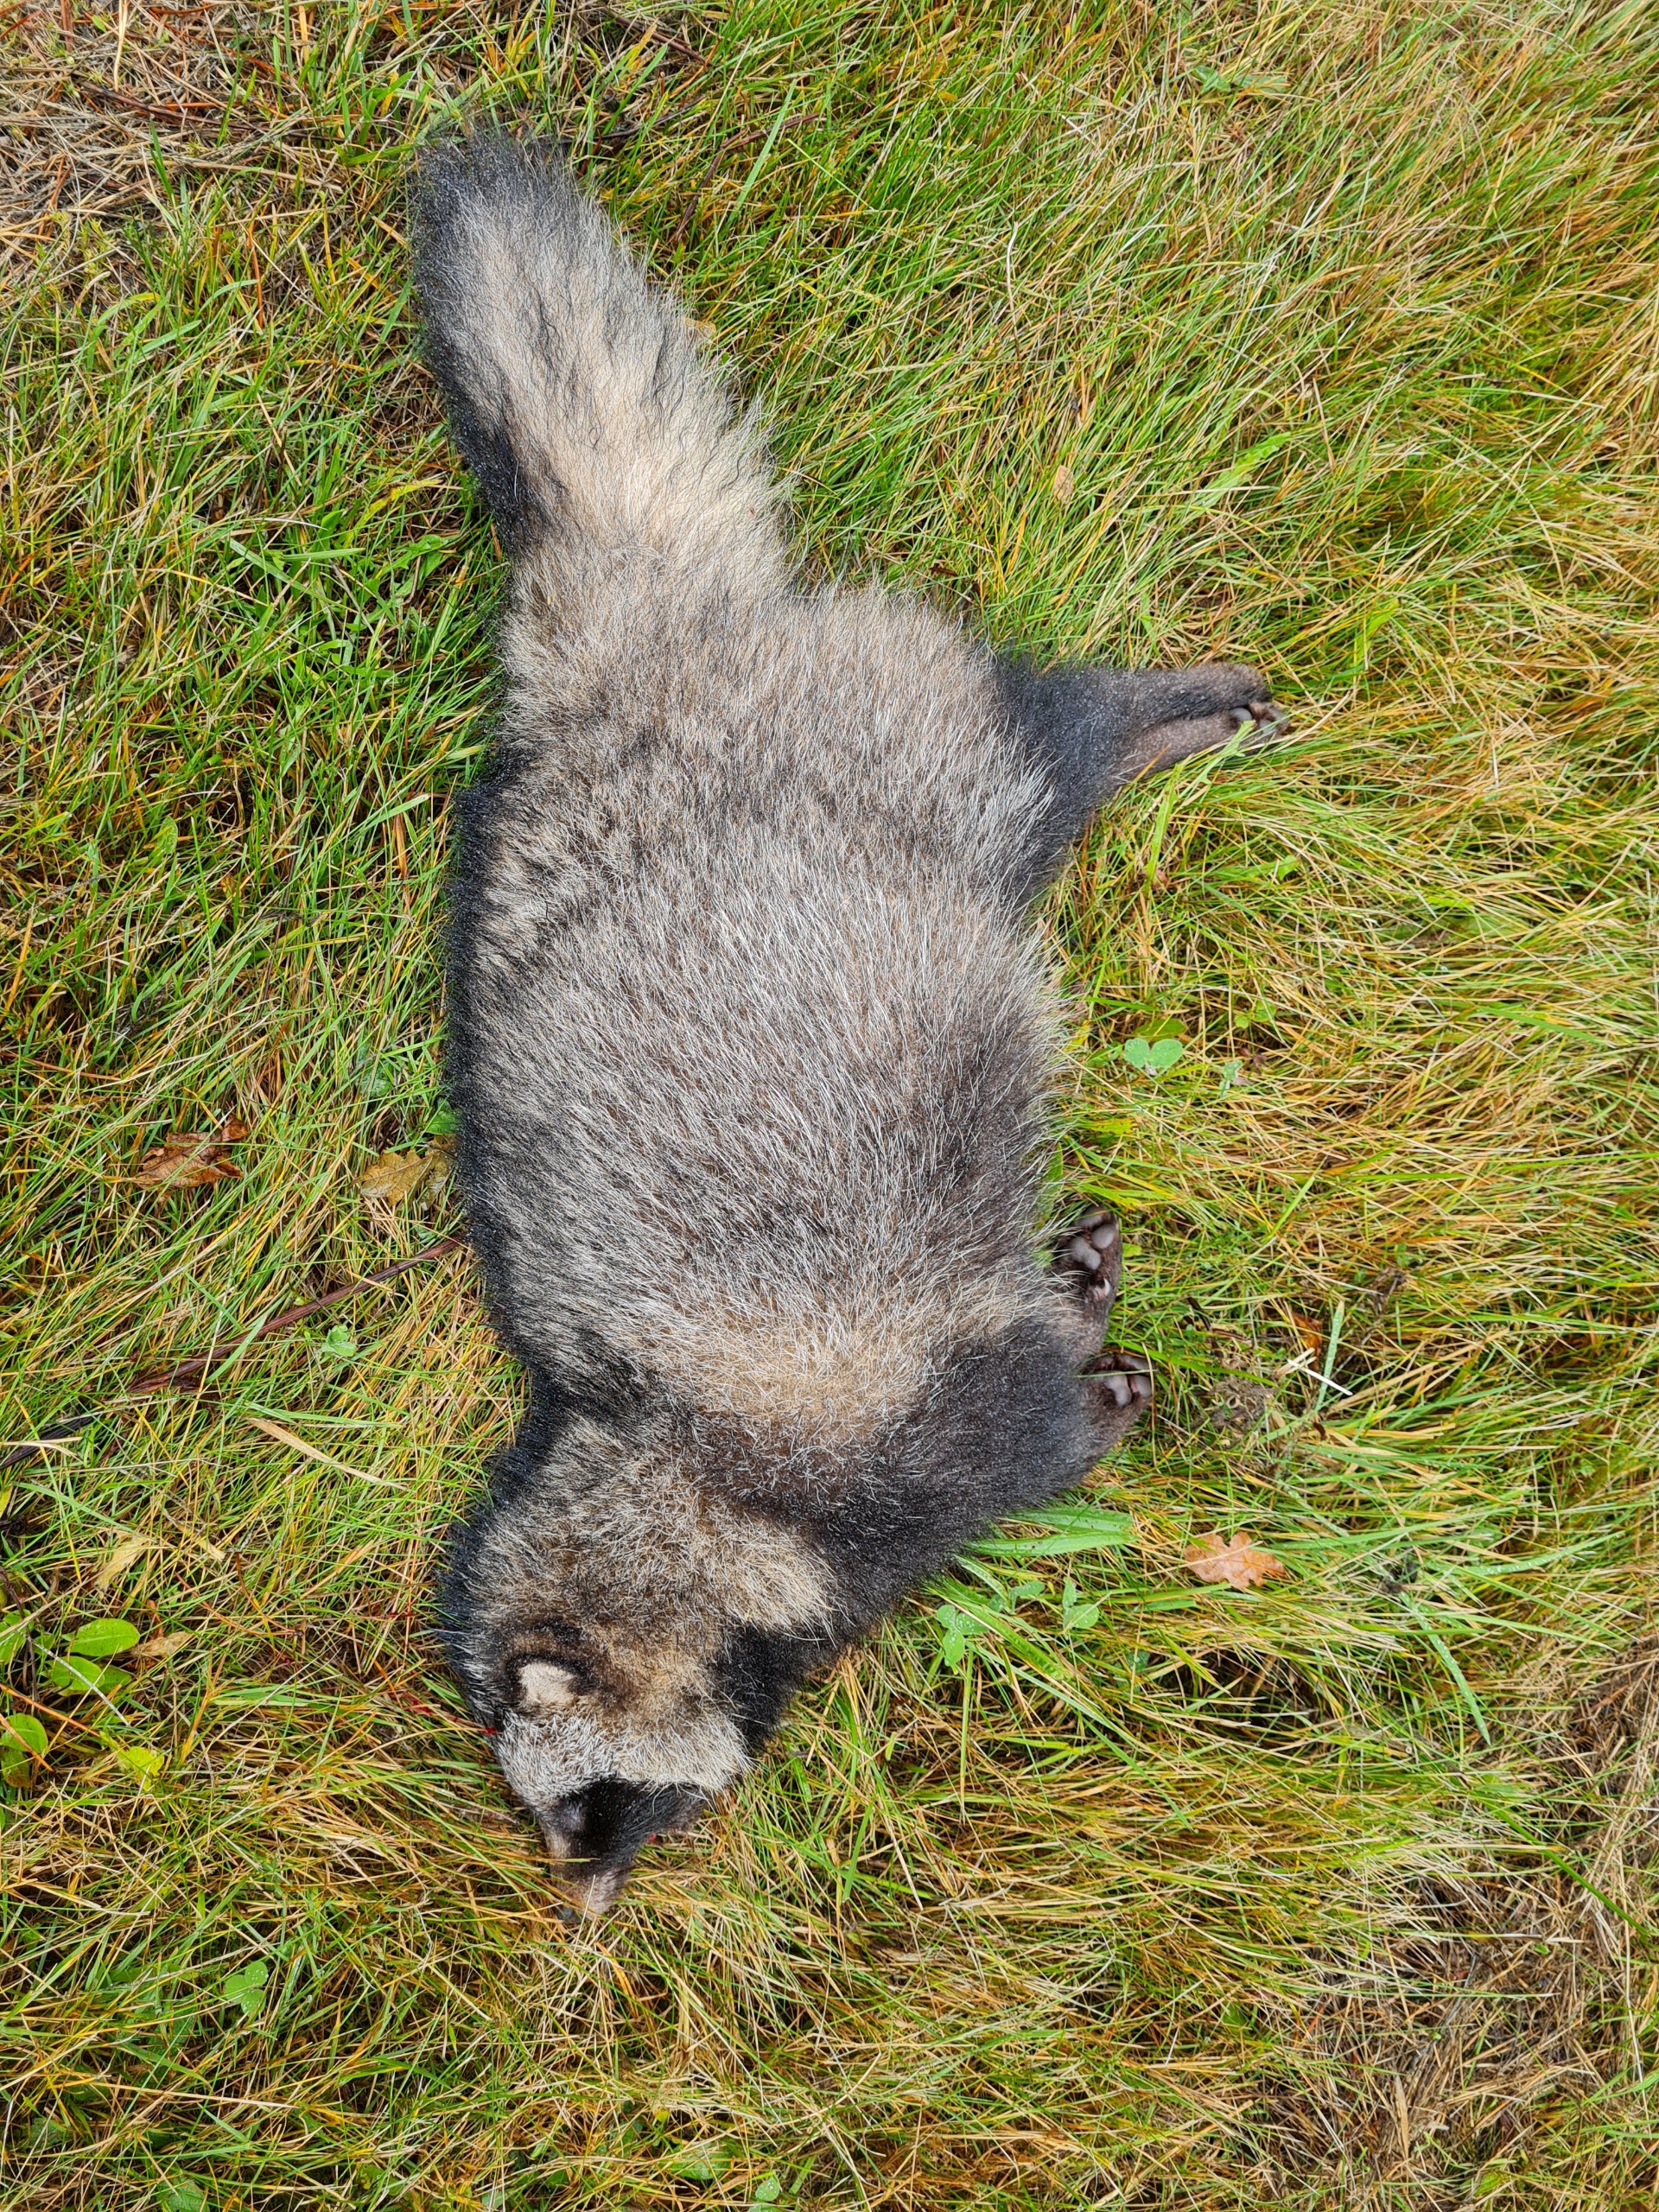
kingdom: Animalia
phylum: Chordata
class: Mammalia
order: Carnivora
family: Canidae
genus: Nyctereutes
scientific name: Nyctereutes procyonoides
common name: Mårhund
